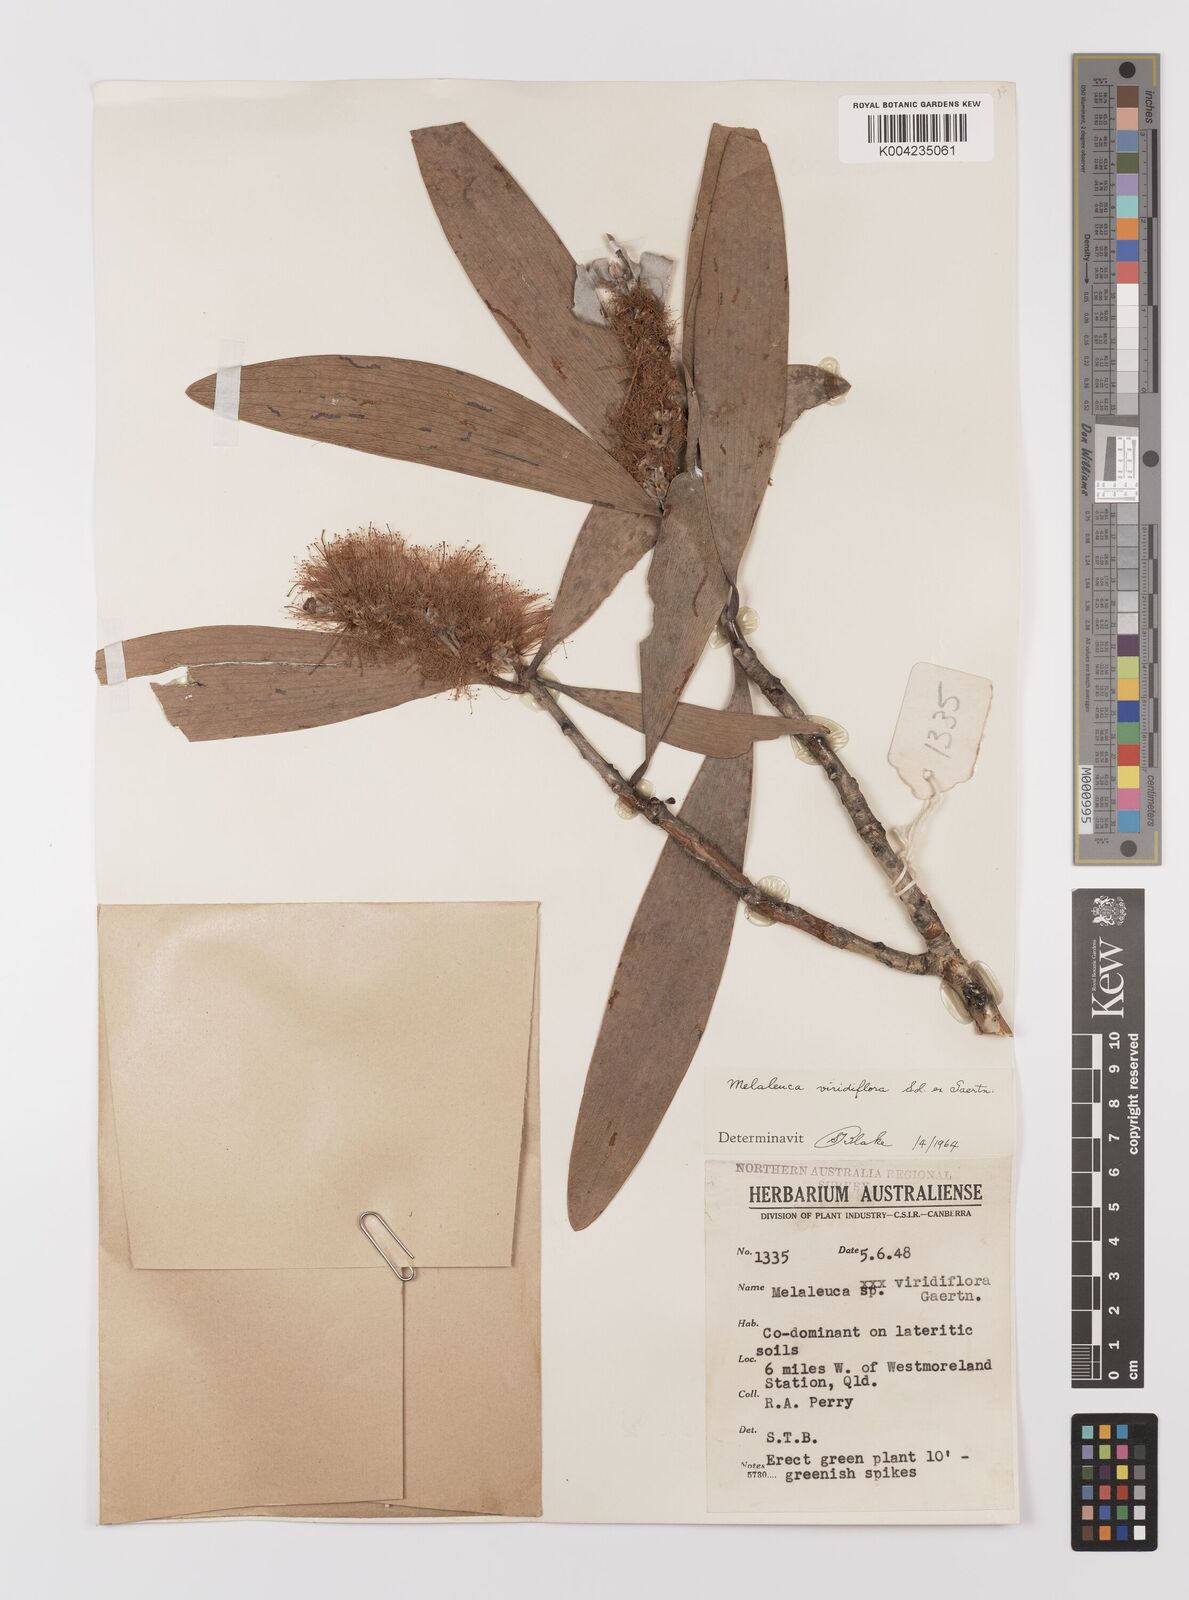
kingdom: Plantae
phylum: Tracheophyta
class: Magnoliopsida
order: Myrtales
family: Myrtaceae
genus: Melaleuca
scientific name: Melaleuca viridiflora
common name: Brown-leaved paperbark
